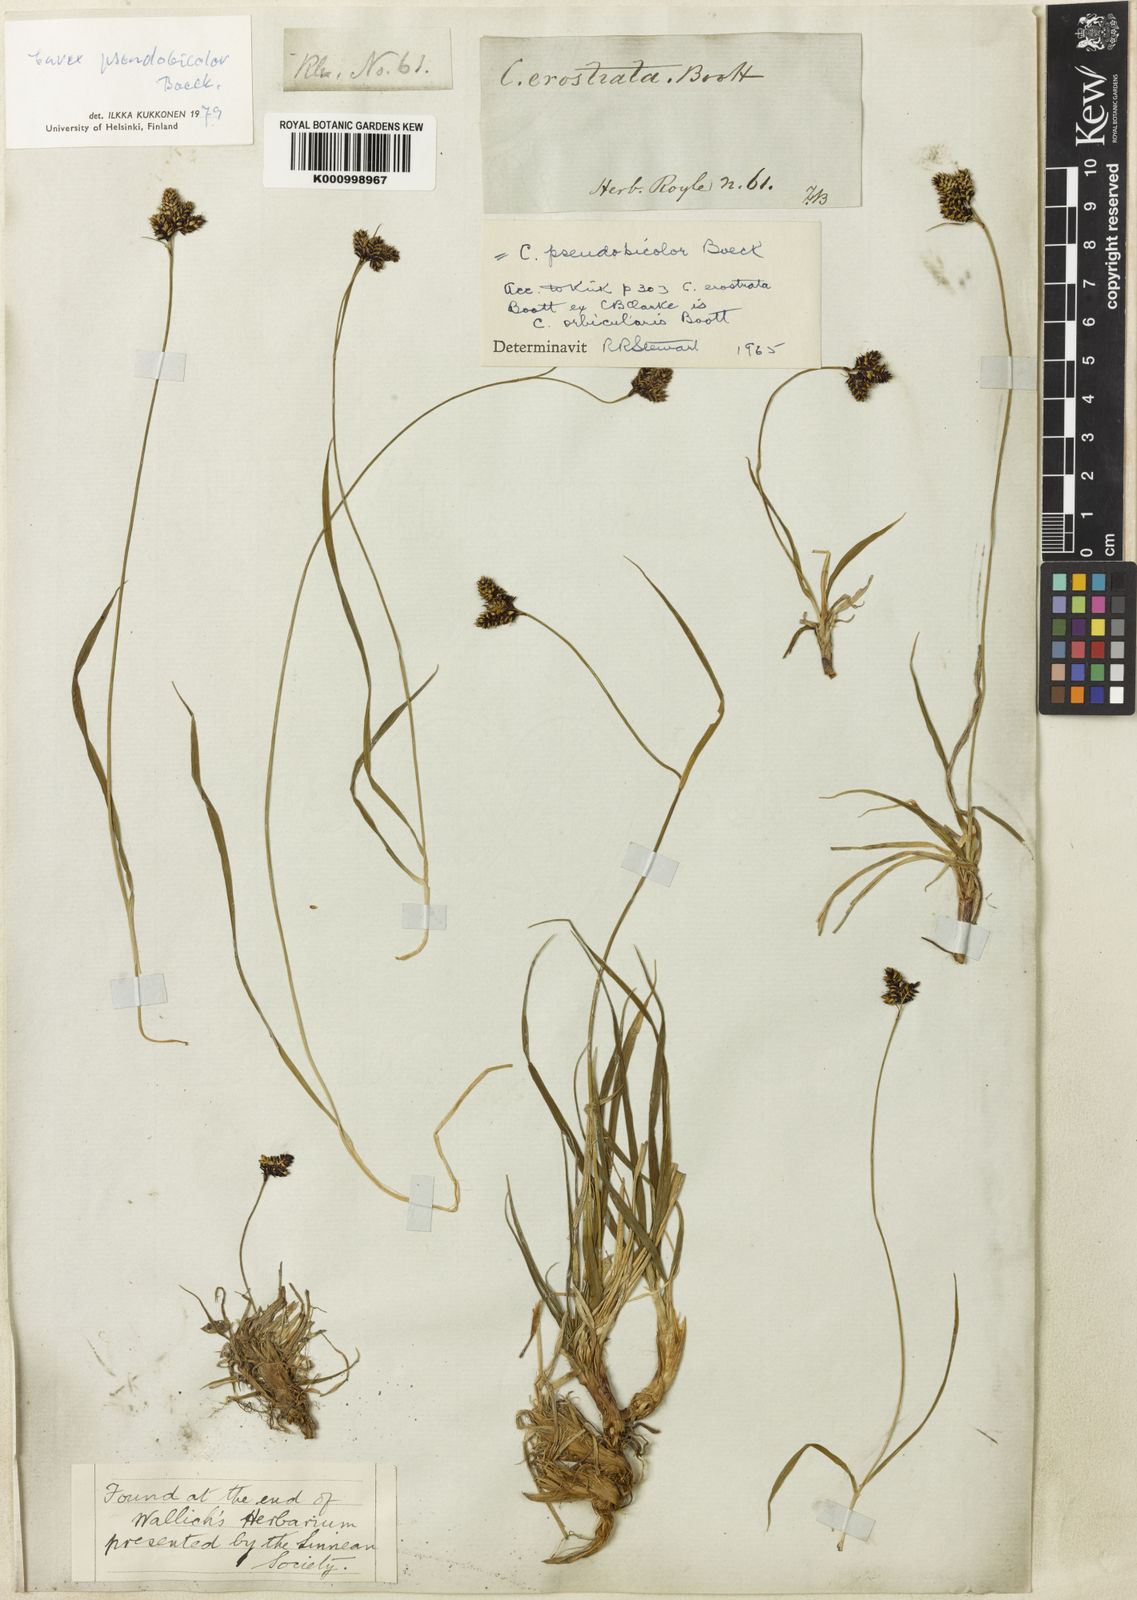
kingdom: Plantae
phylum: Tracheophyta
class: Liliopsida
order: Poales
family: Cyperaceae
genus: Carex
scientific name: Carex norvegica
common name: Close-headed alpine-sedge
